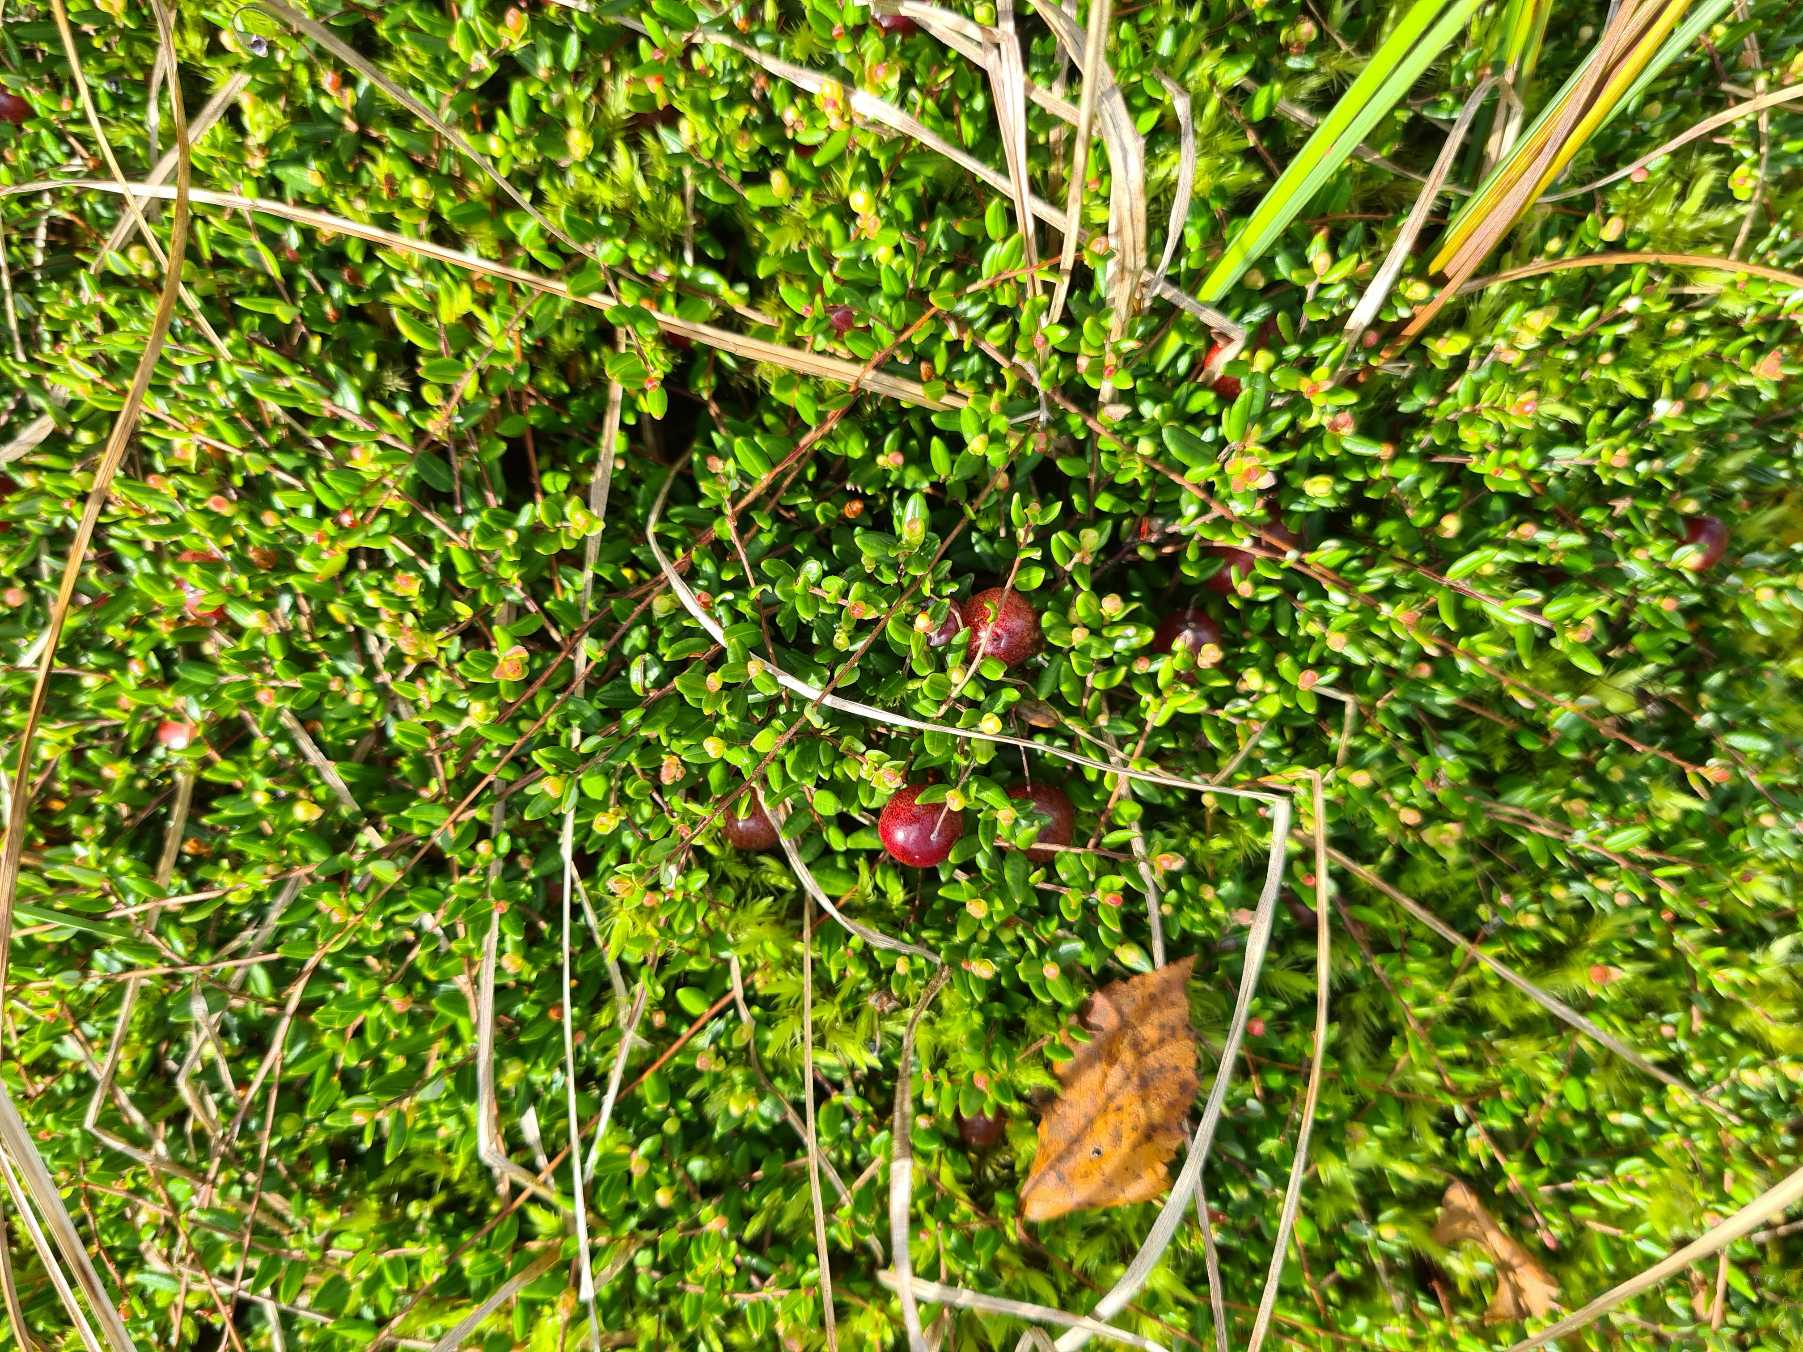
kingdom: Plantae
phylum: Tracheophyta
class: Magnoliopsida
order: Ericales
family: Ericaceae
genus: Vaccinium
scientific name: Vaccinium oxycoccos
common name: Tranebær
